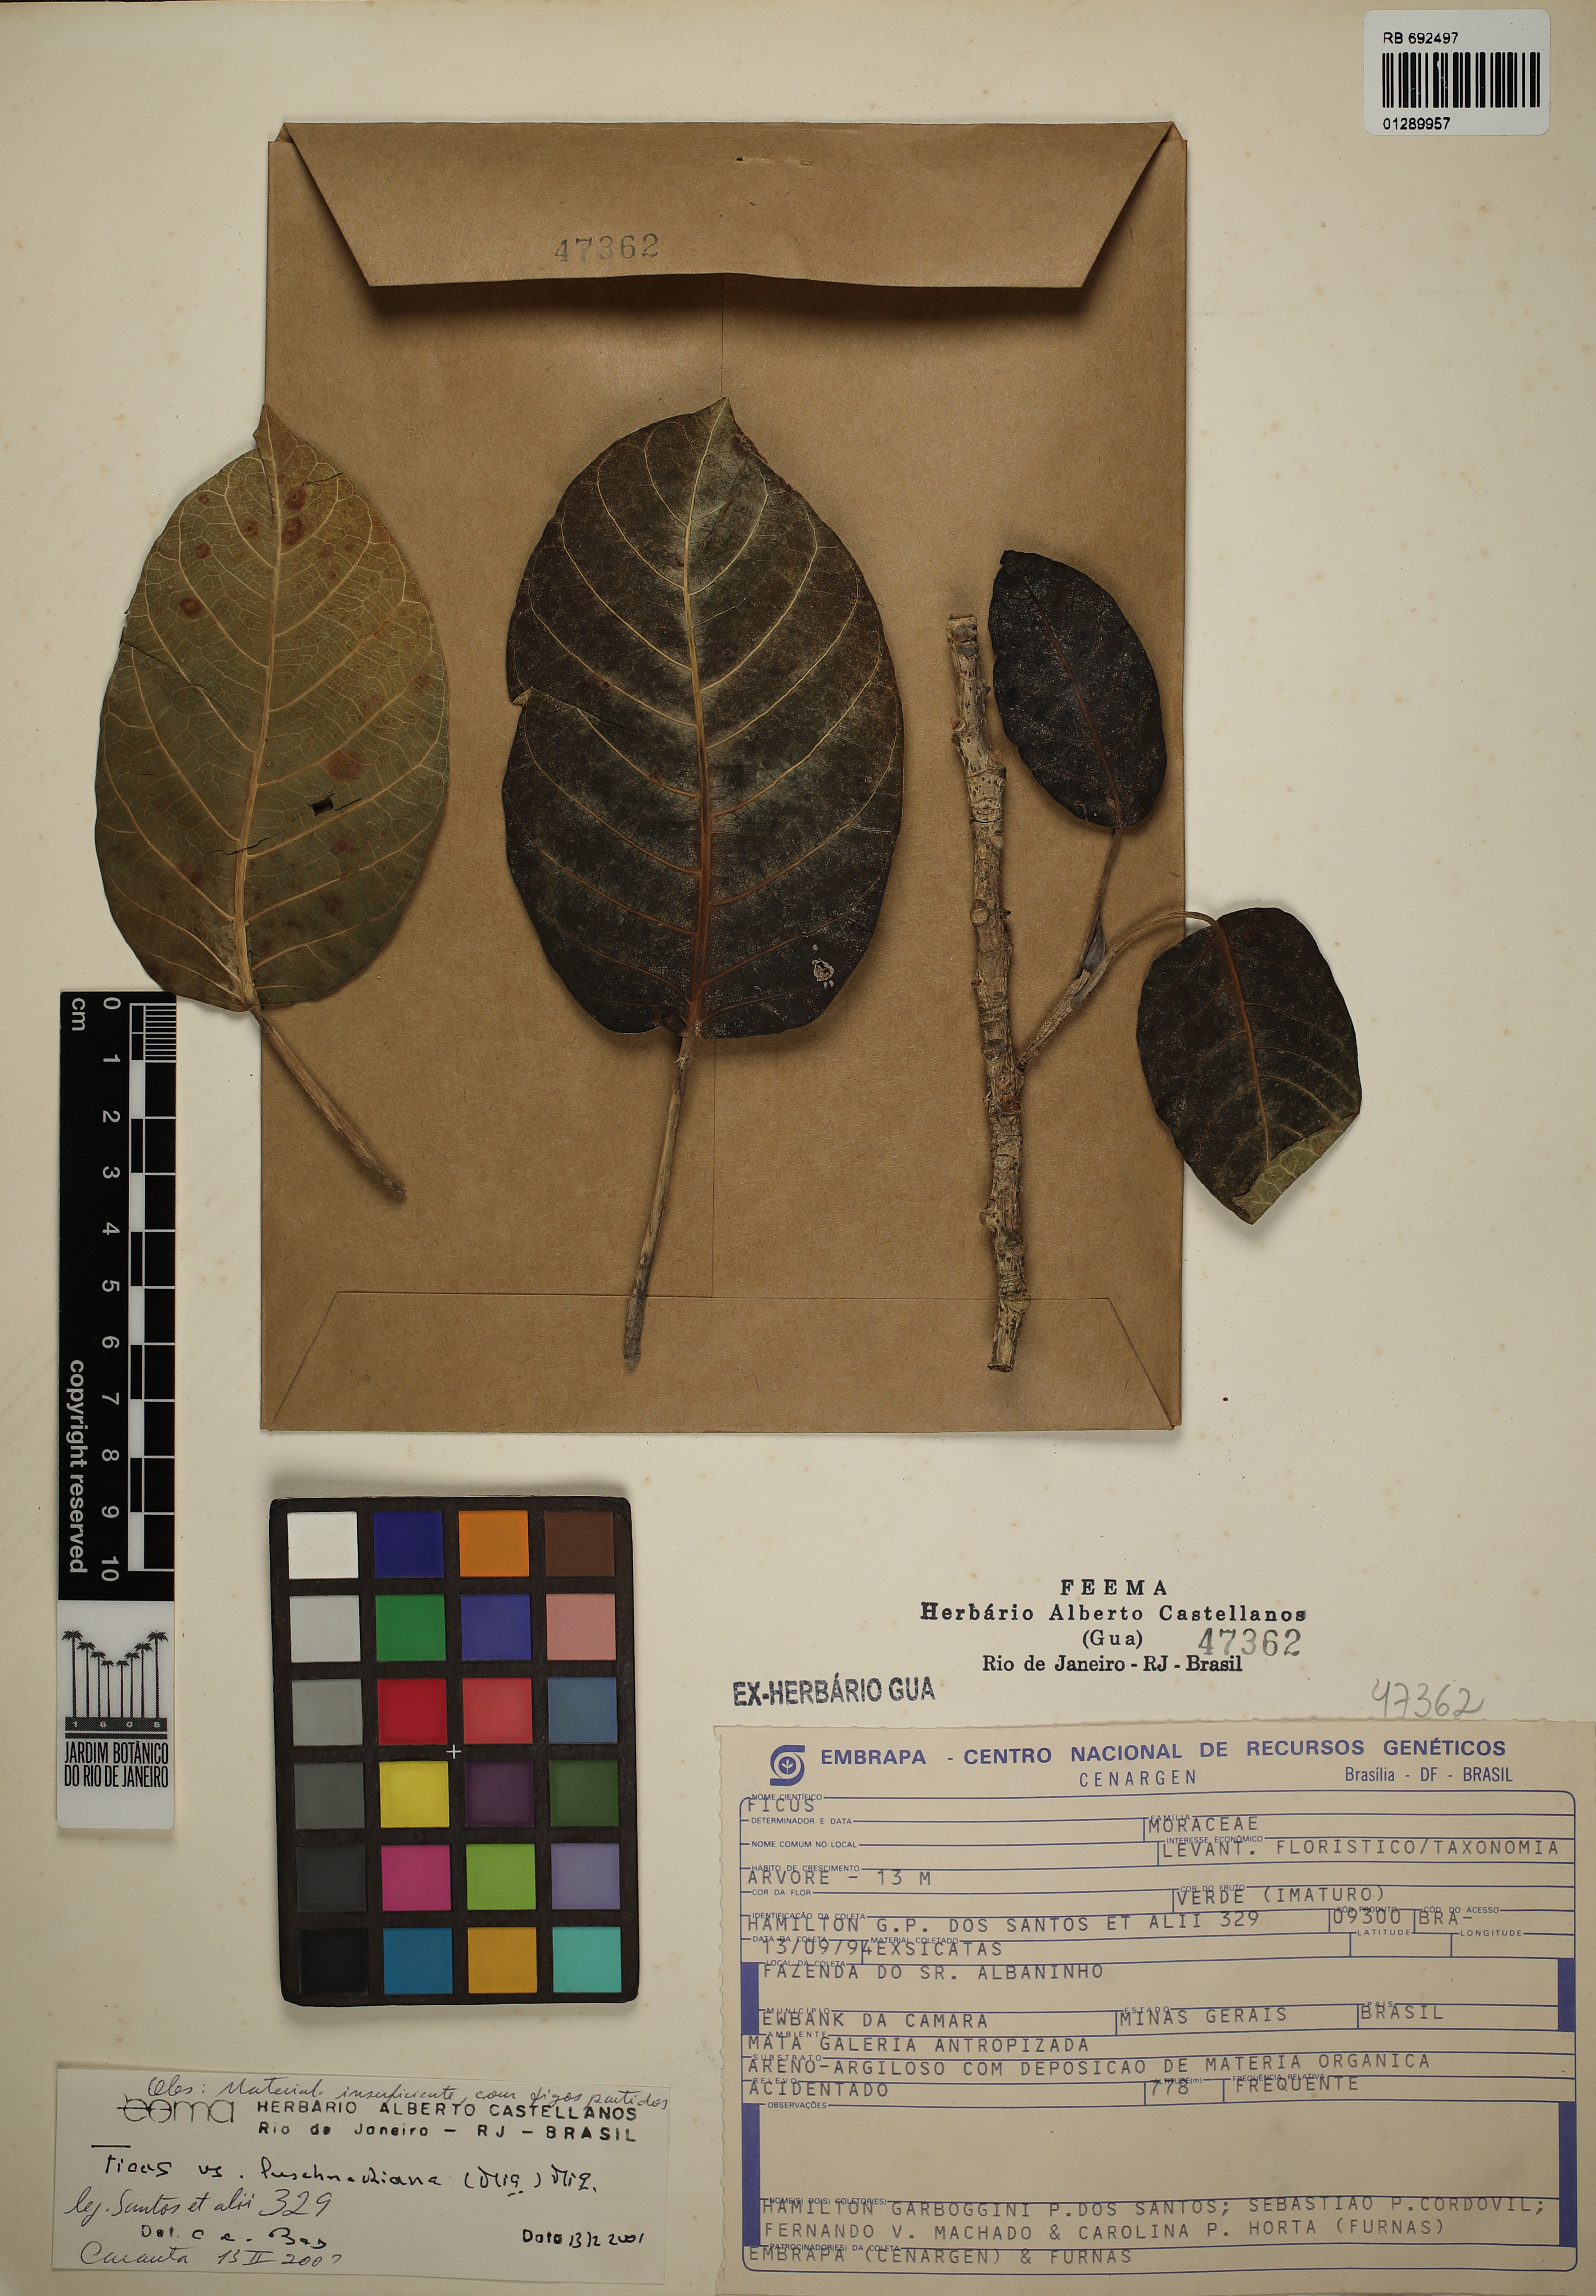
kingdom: Plantae
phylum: Tracheophyta
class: Magnoliopsida
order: Rosales
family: Moraceae
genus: Ficus
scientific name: Ficus luschnathiana
